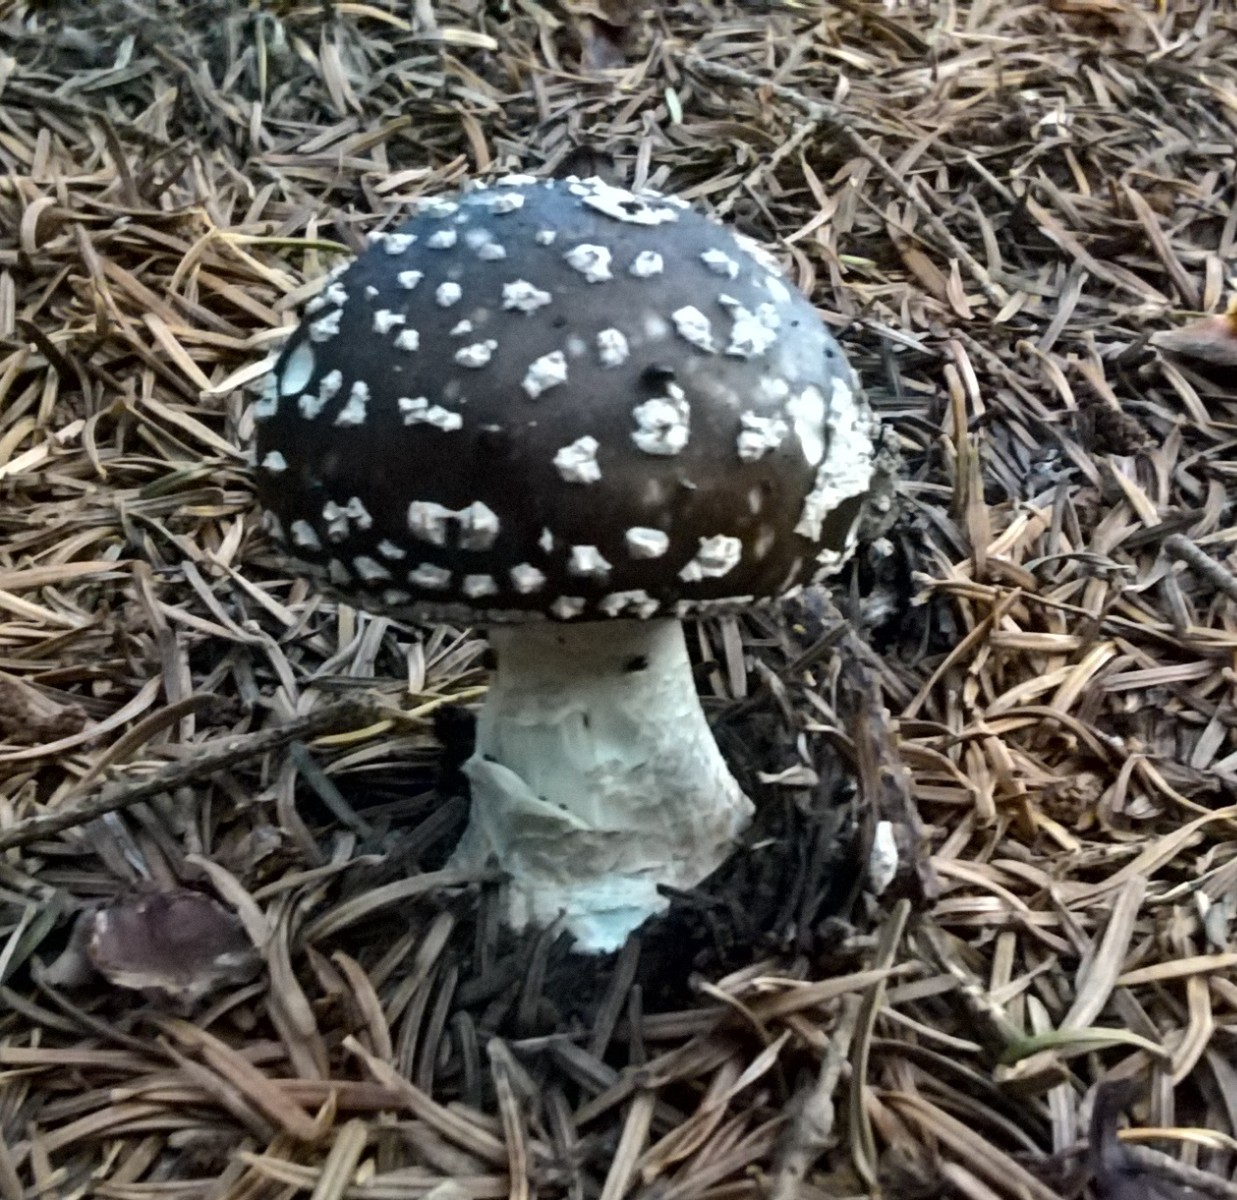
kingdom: Fungi
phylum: Basidiomycota
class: Agaricomycetes
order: Agaricales
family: Amanitaceae
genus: Amanita
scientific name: Amanita pantherina
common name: panter-fluesvamp
